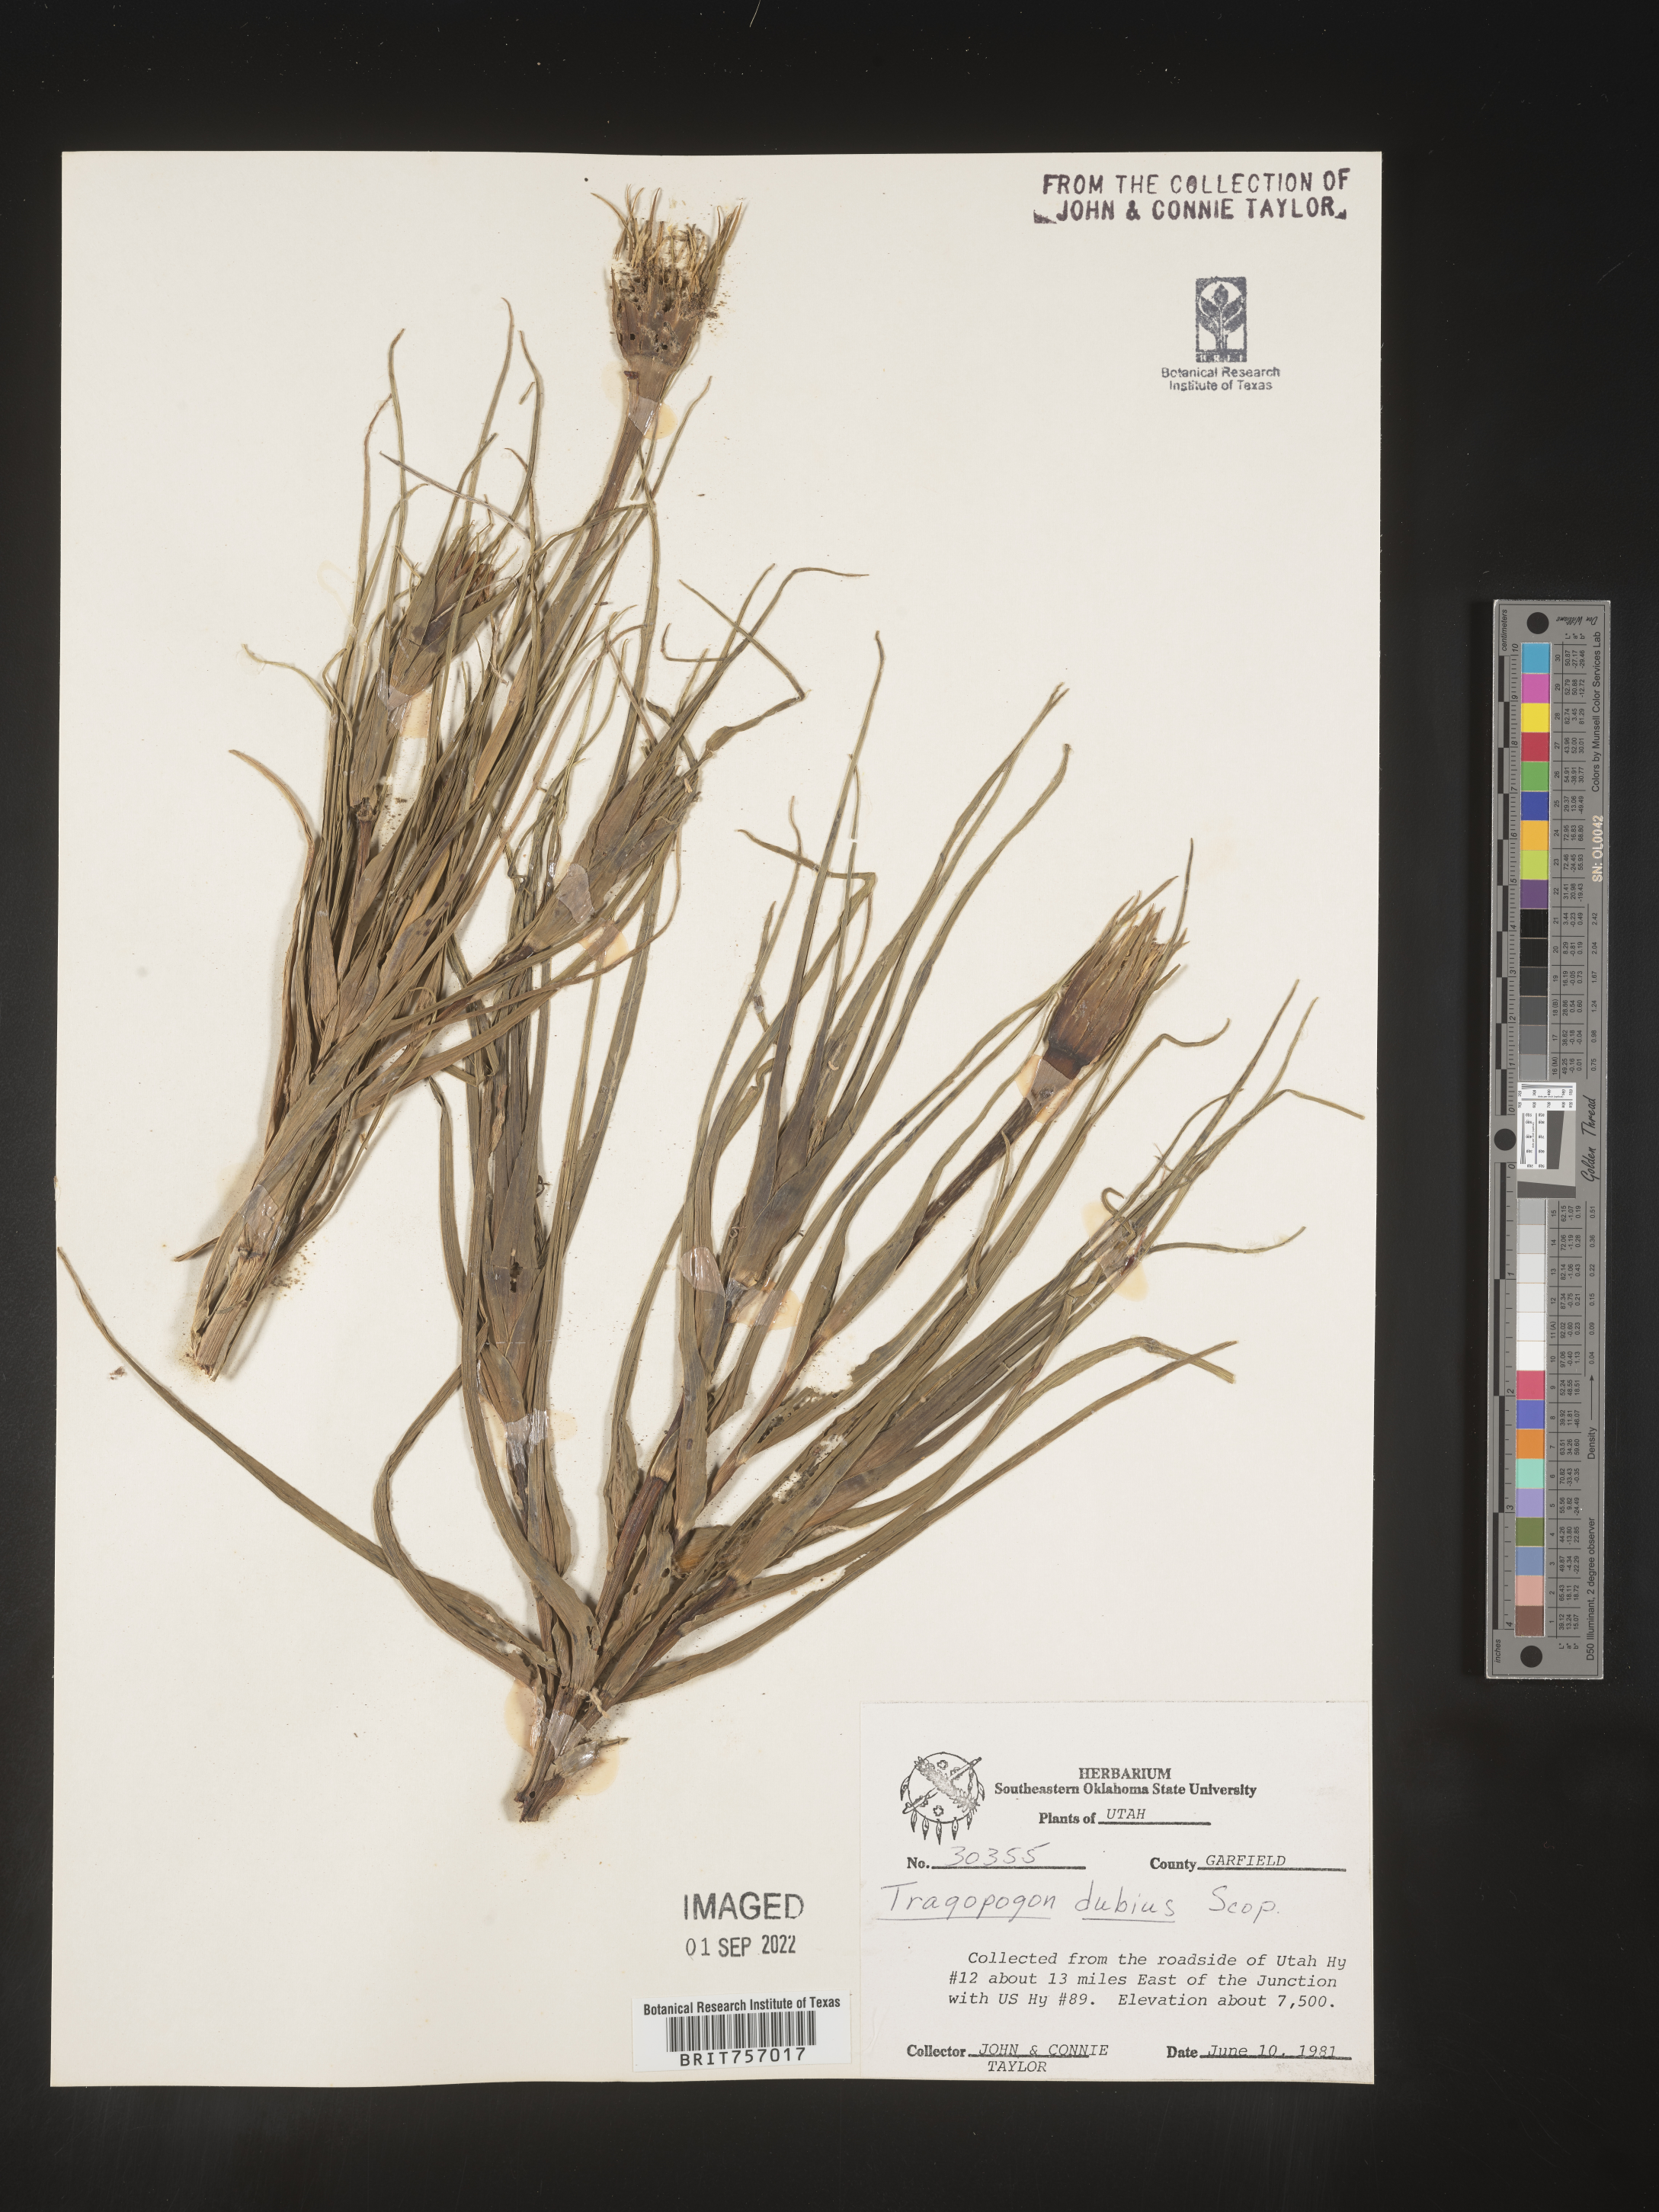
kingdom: Plantae
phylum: Tracheophyta
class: Magnoliopsida
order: Asterales
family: Asteraceae
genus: Tragopogon
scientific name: Tragopogon dubius
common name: Yellow salsify
